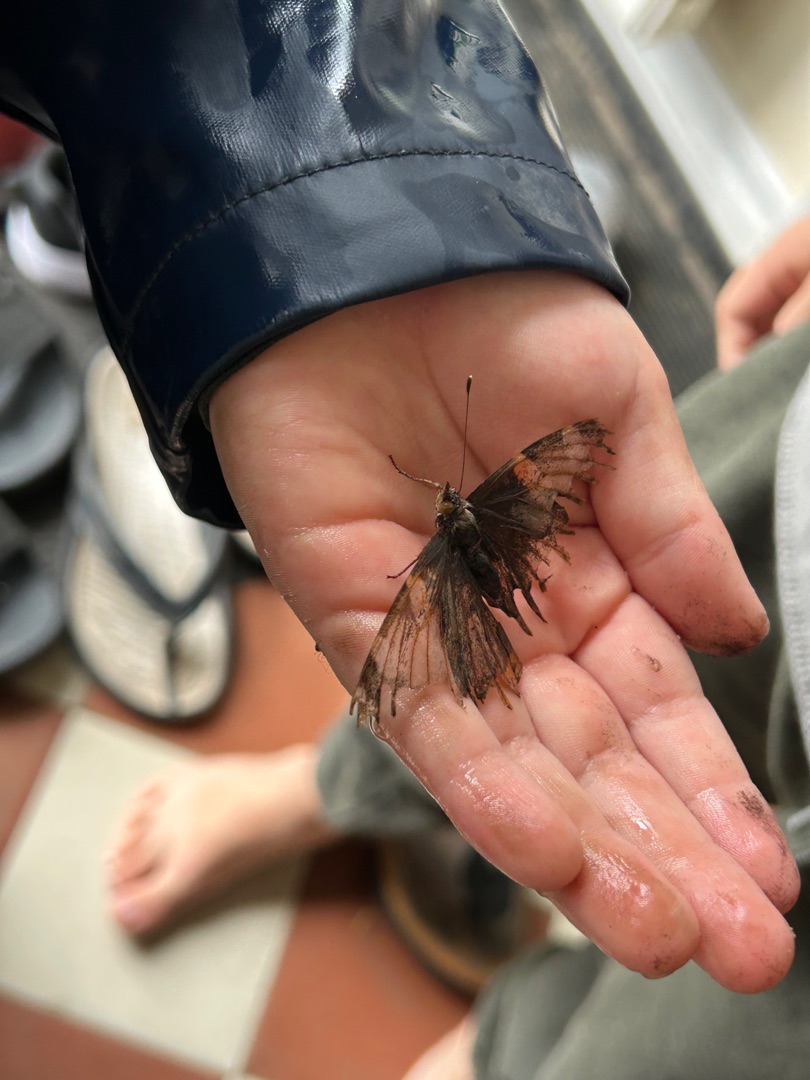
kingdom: Animalia
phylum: Arthropoda
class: Insecta
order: Lepidoptera
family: Nymphalidae
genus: Vanessa
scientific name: Vanessa atalanta
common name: Admiral
